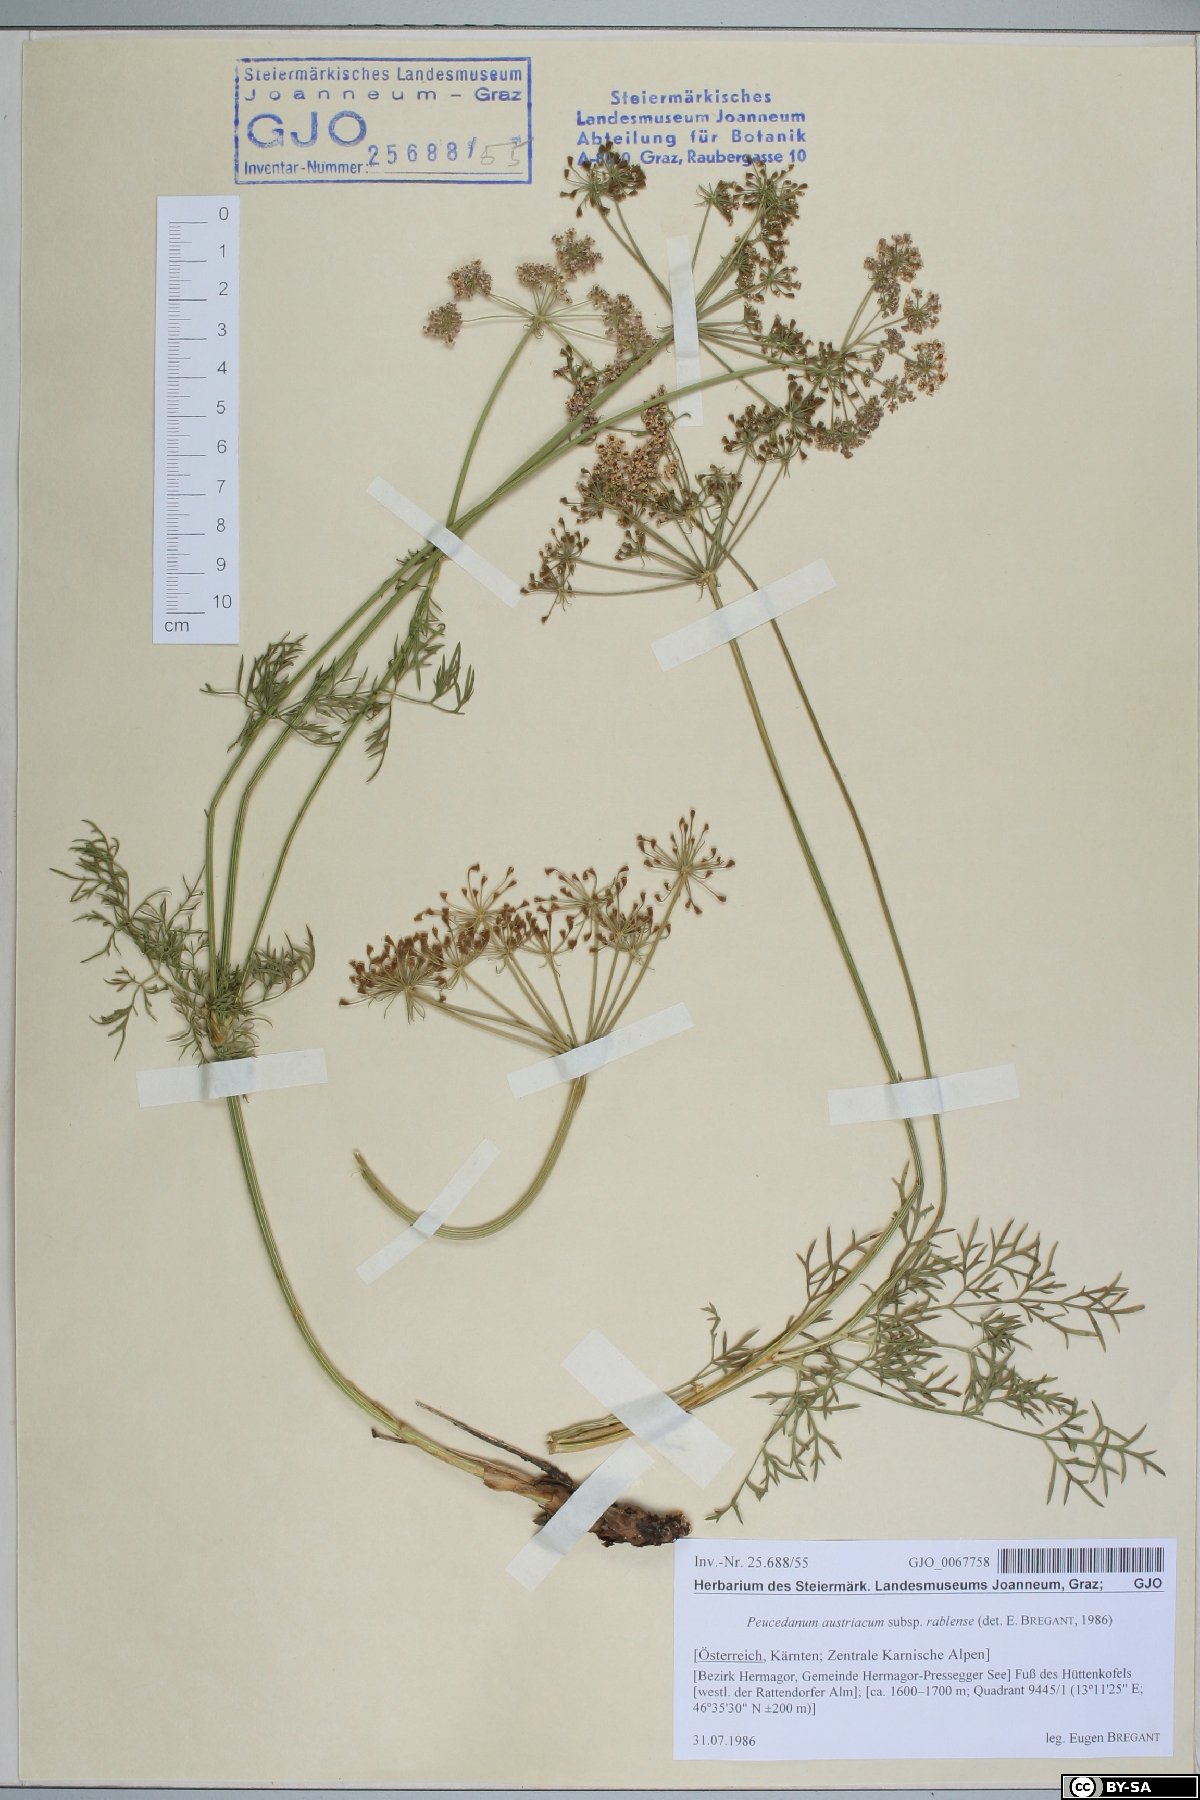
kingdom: Plantae
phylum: Tracheophyta
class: Magnoliopsida
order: Apiales
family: Apiaceae
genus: Peucedanum
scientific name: Peucedanum rablense
